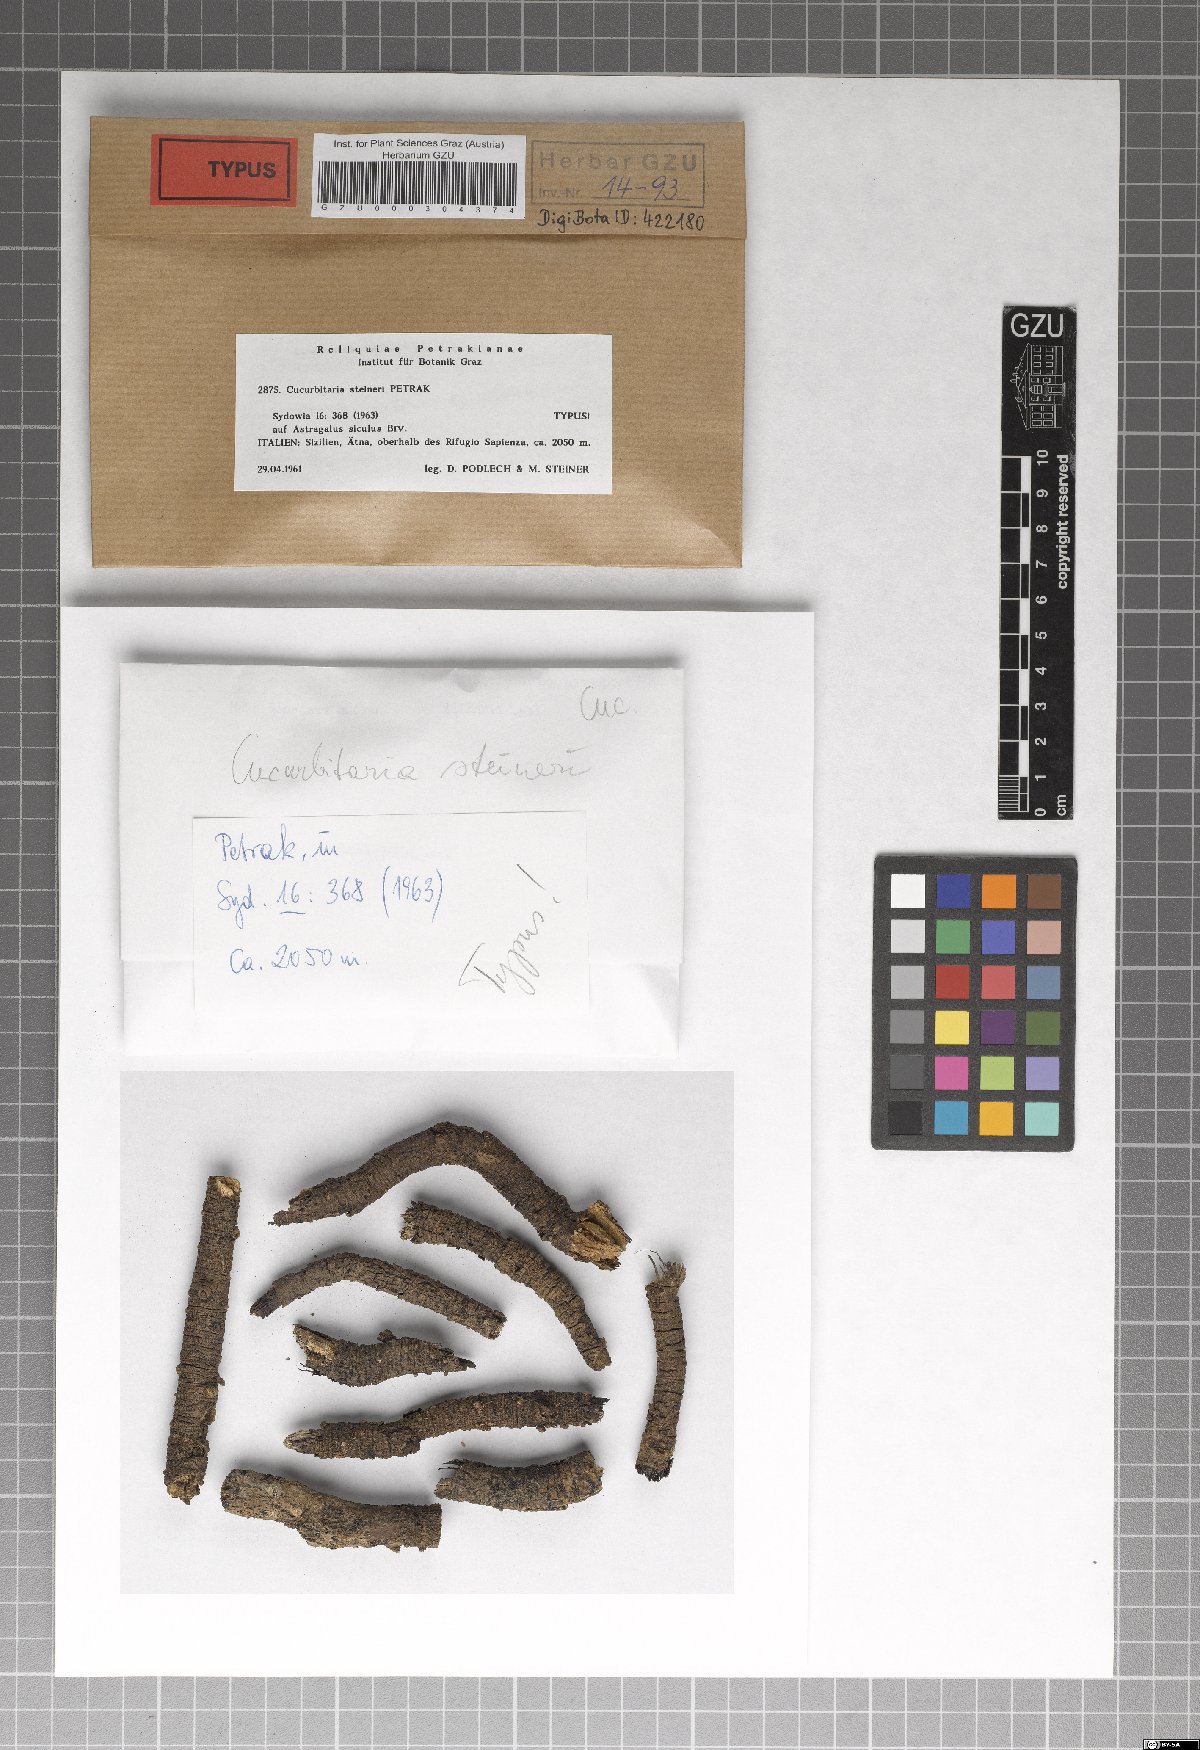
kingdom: Fungi
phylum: Ascomycota
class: Dothideomycetes
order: Pleosporales
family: Cucurbitariaceae
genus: Cucurbitaria
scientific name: Cucurbitaria steineri
